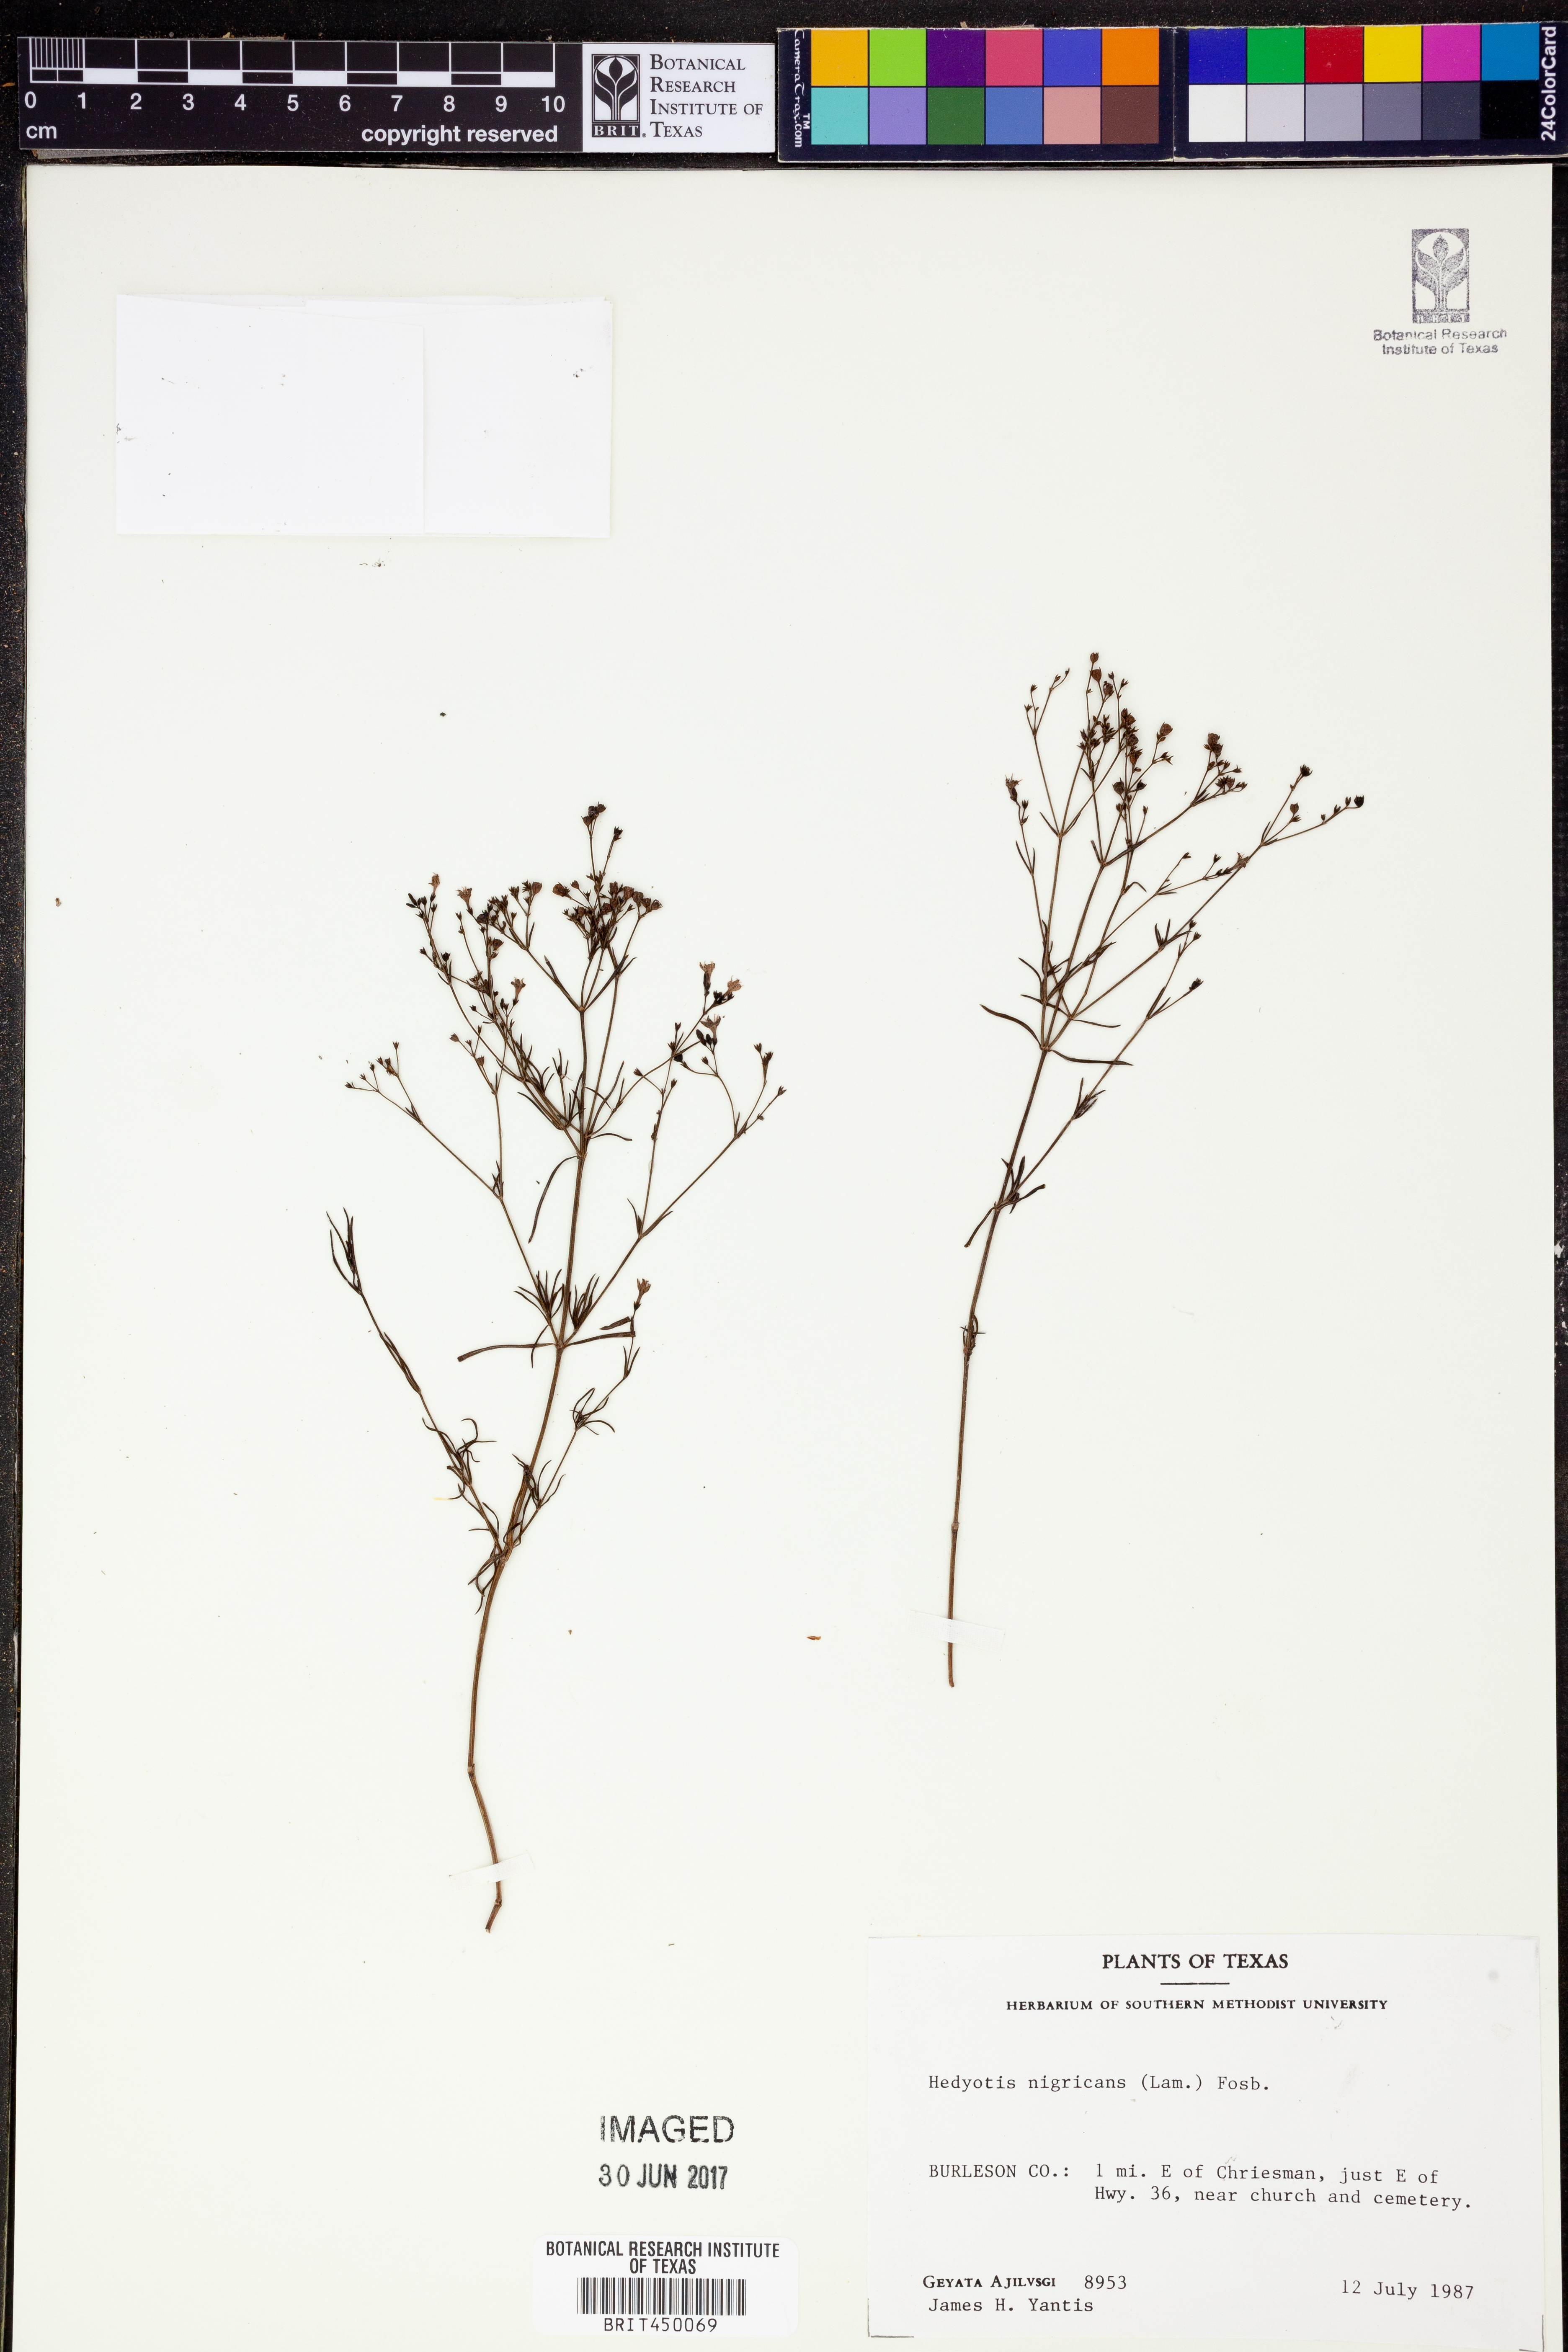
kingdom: Plantae
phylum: Tracheophyta
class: Magnoliopsida
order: Gentianales
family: Rubiaceae
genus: Stenaria
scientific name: Stenaria nigricans
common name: Diamondflowers
